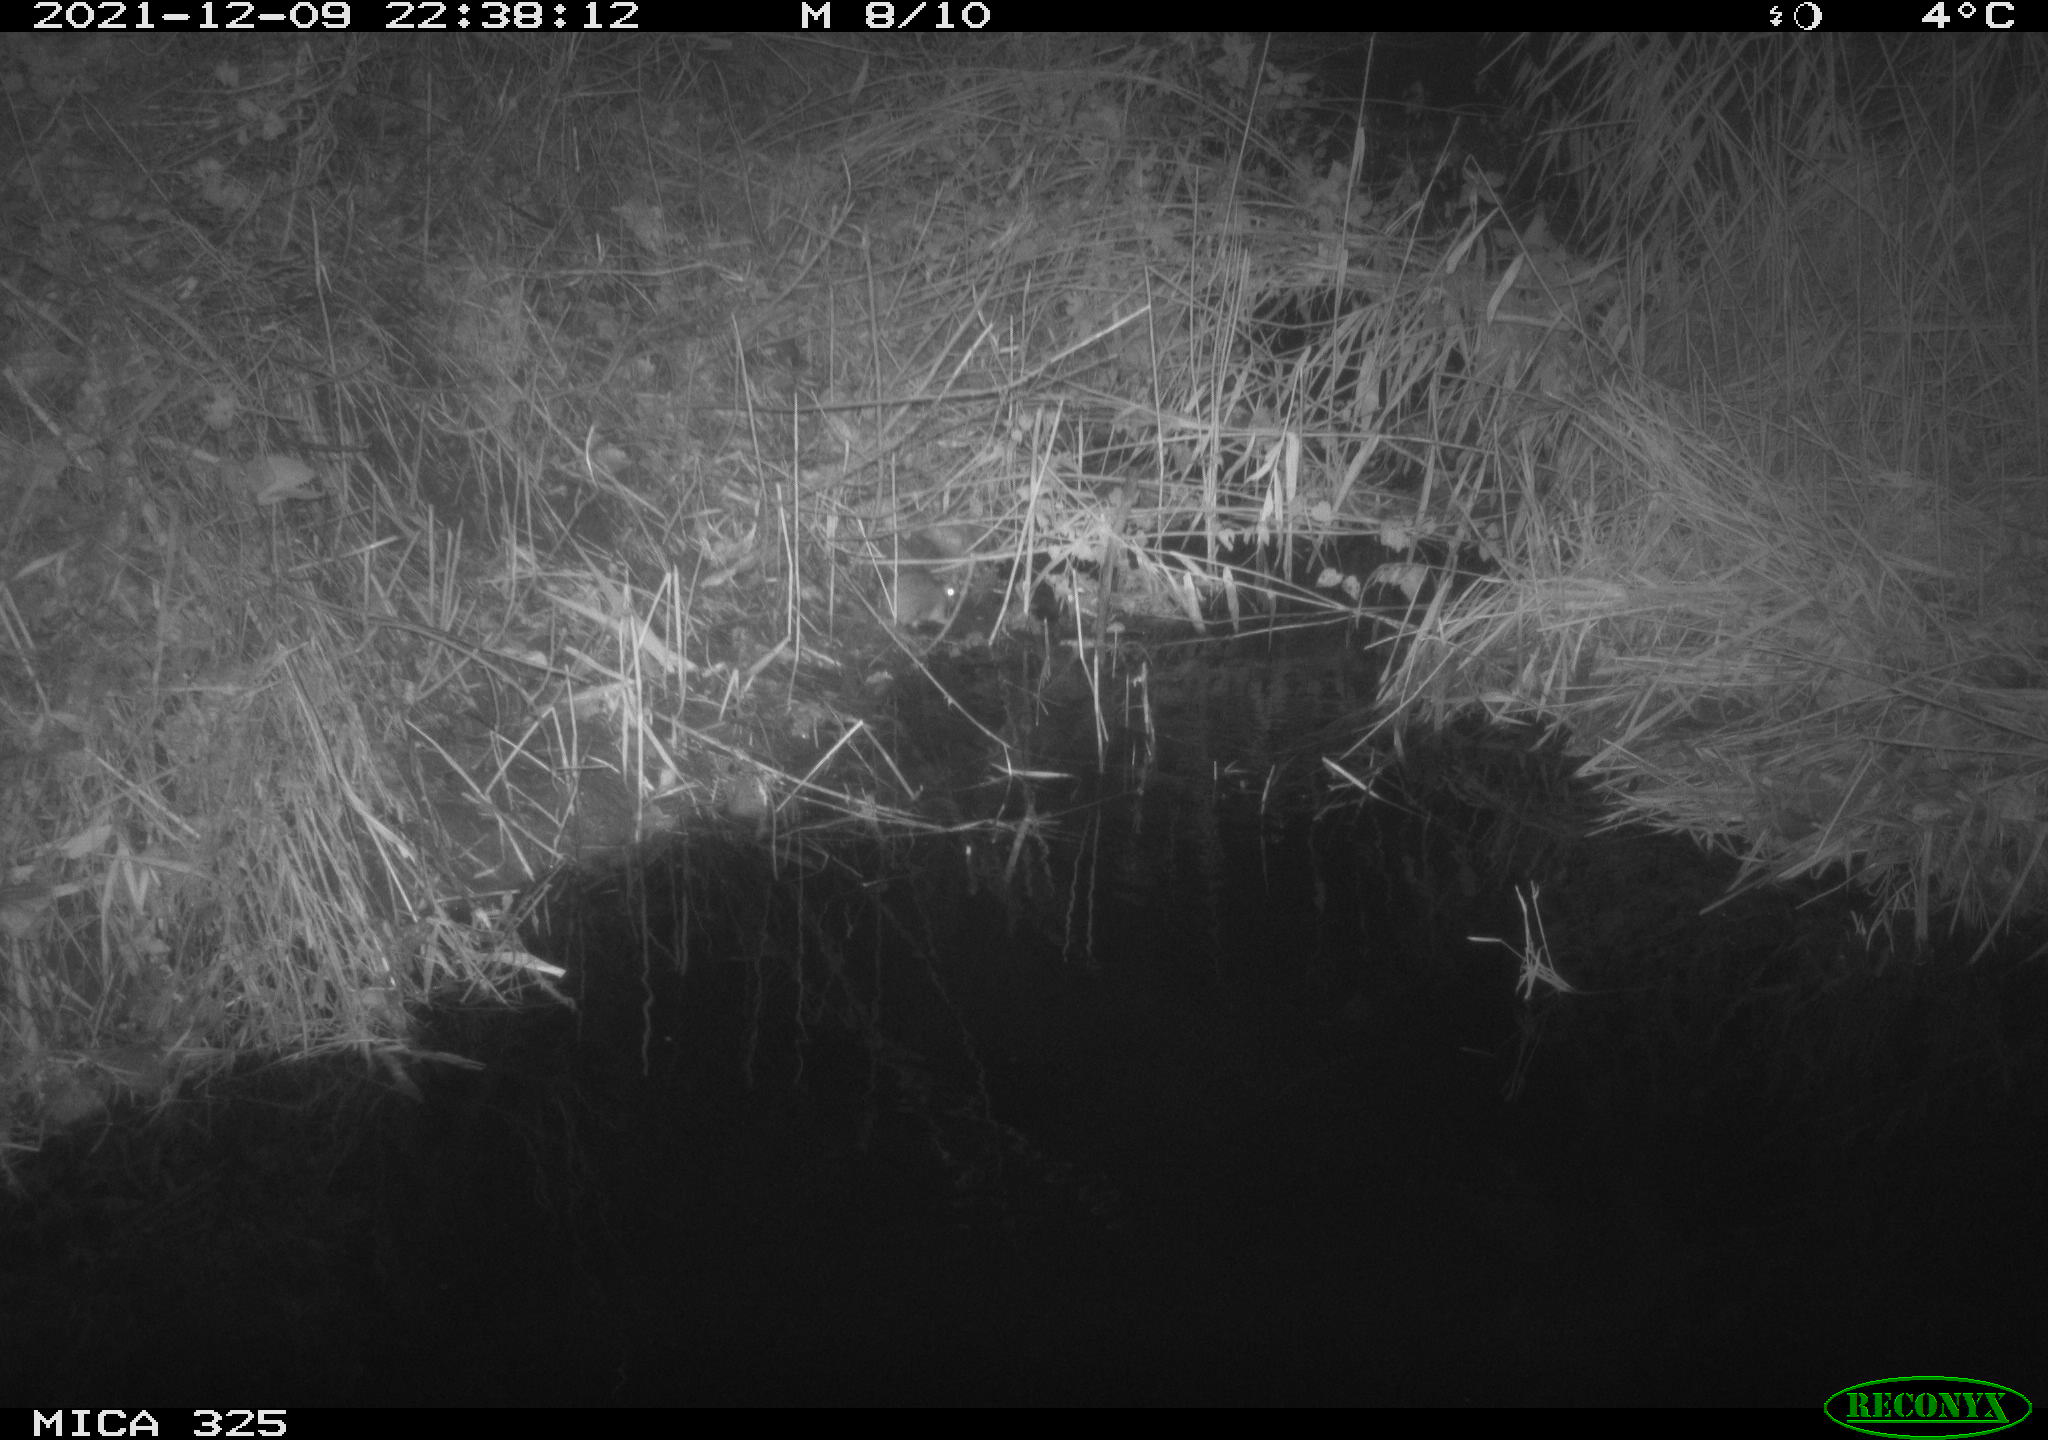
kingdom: Animalia
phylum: Chordata
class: Mammalia
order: Rodentia
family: Muridae
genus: Rattus
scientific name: Rattus norvegicus
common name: Brown rat
